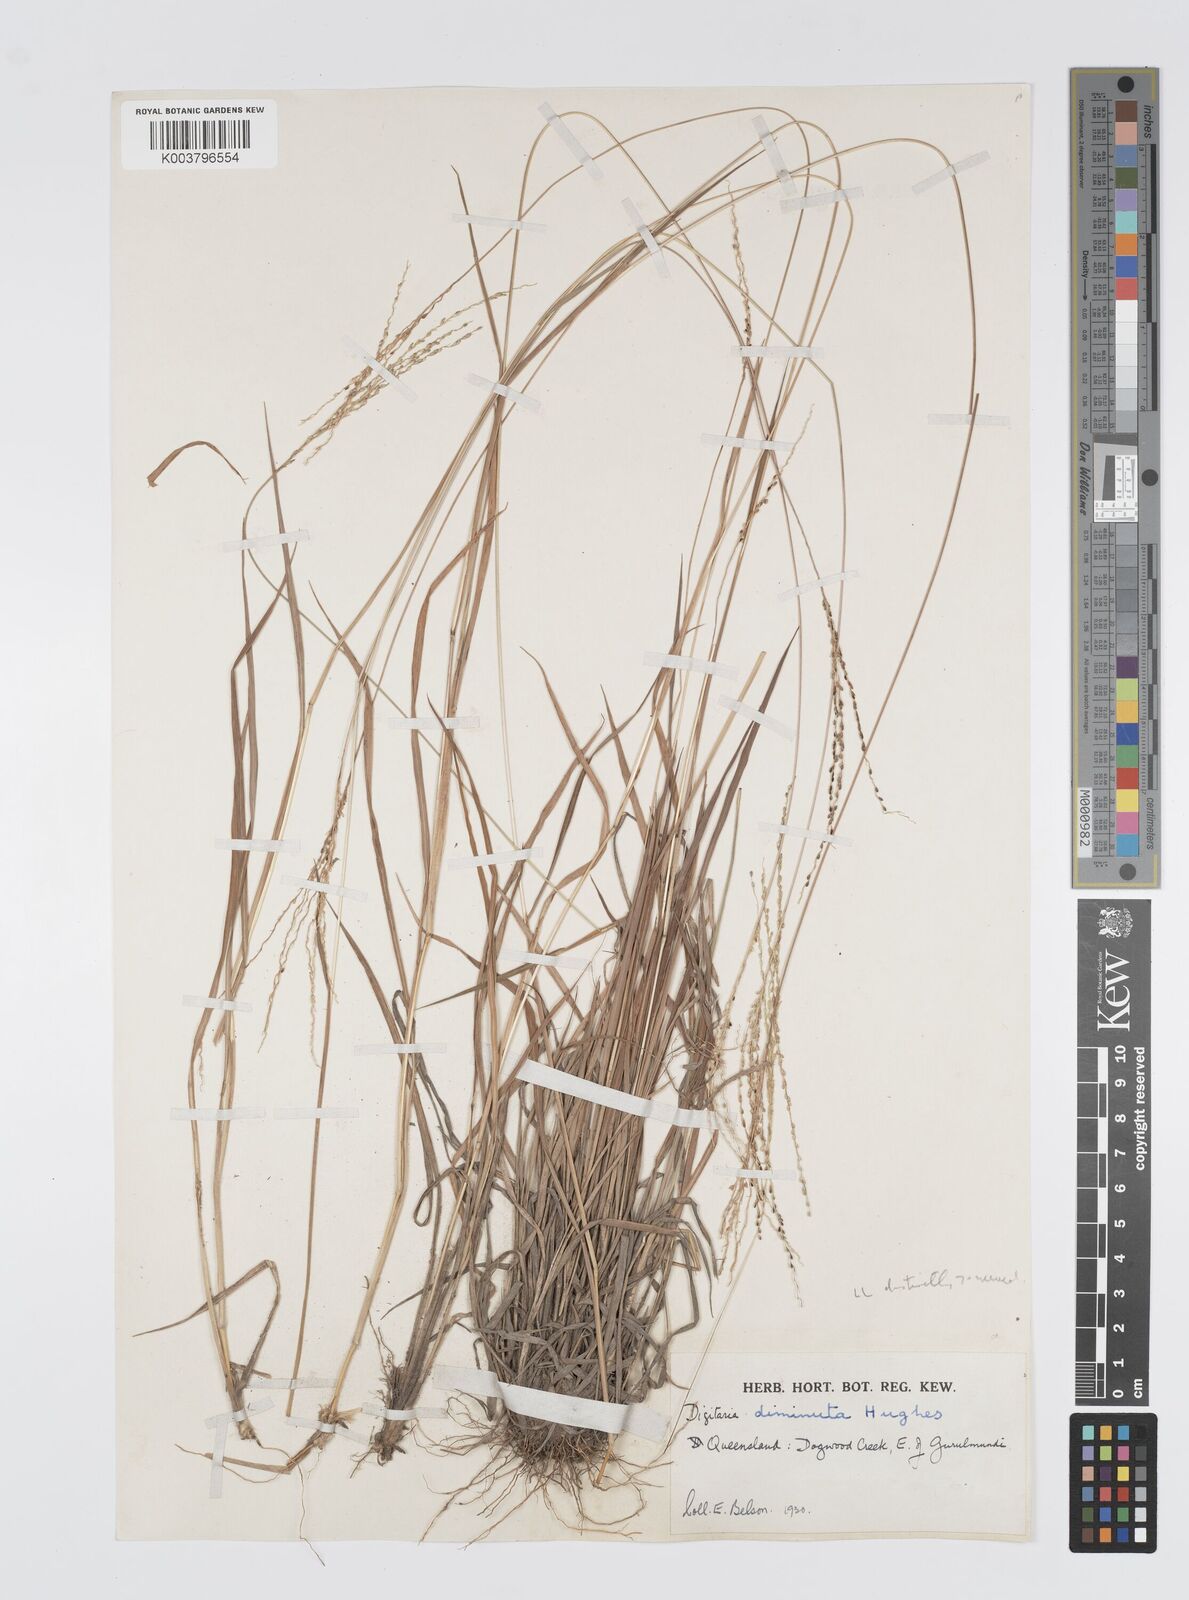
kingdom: Plantae
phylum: Tracheophyta
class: Liliopsida
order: Poales
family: Poaceae
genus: Digitaria
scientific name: Digitaria breviglumis
